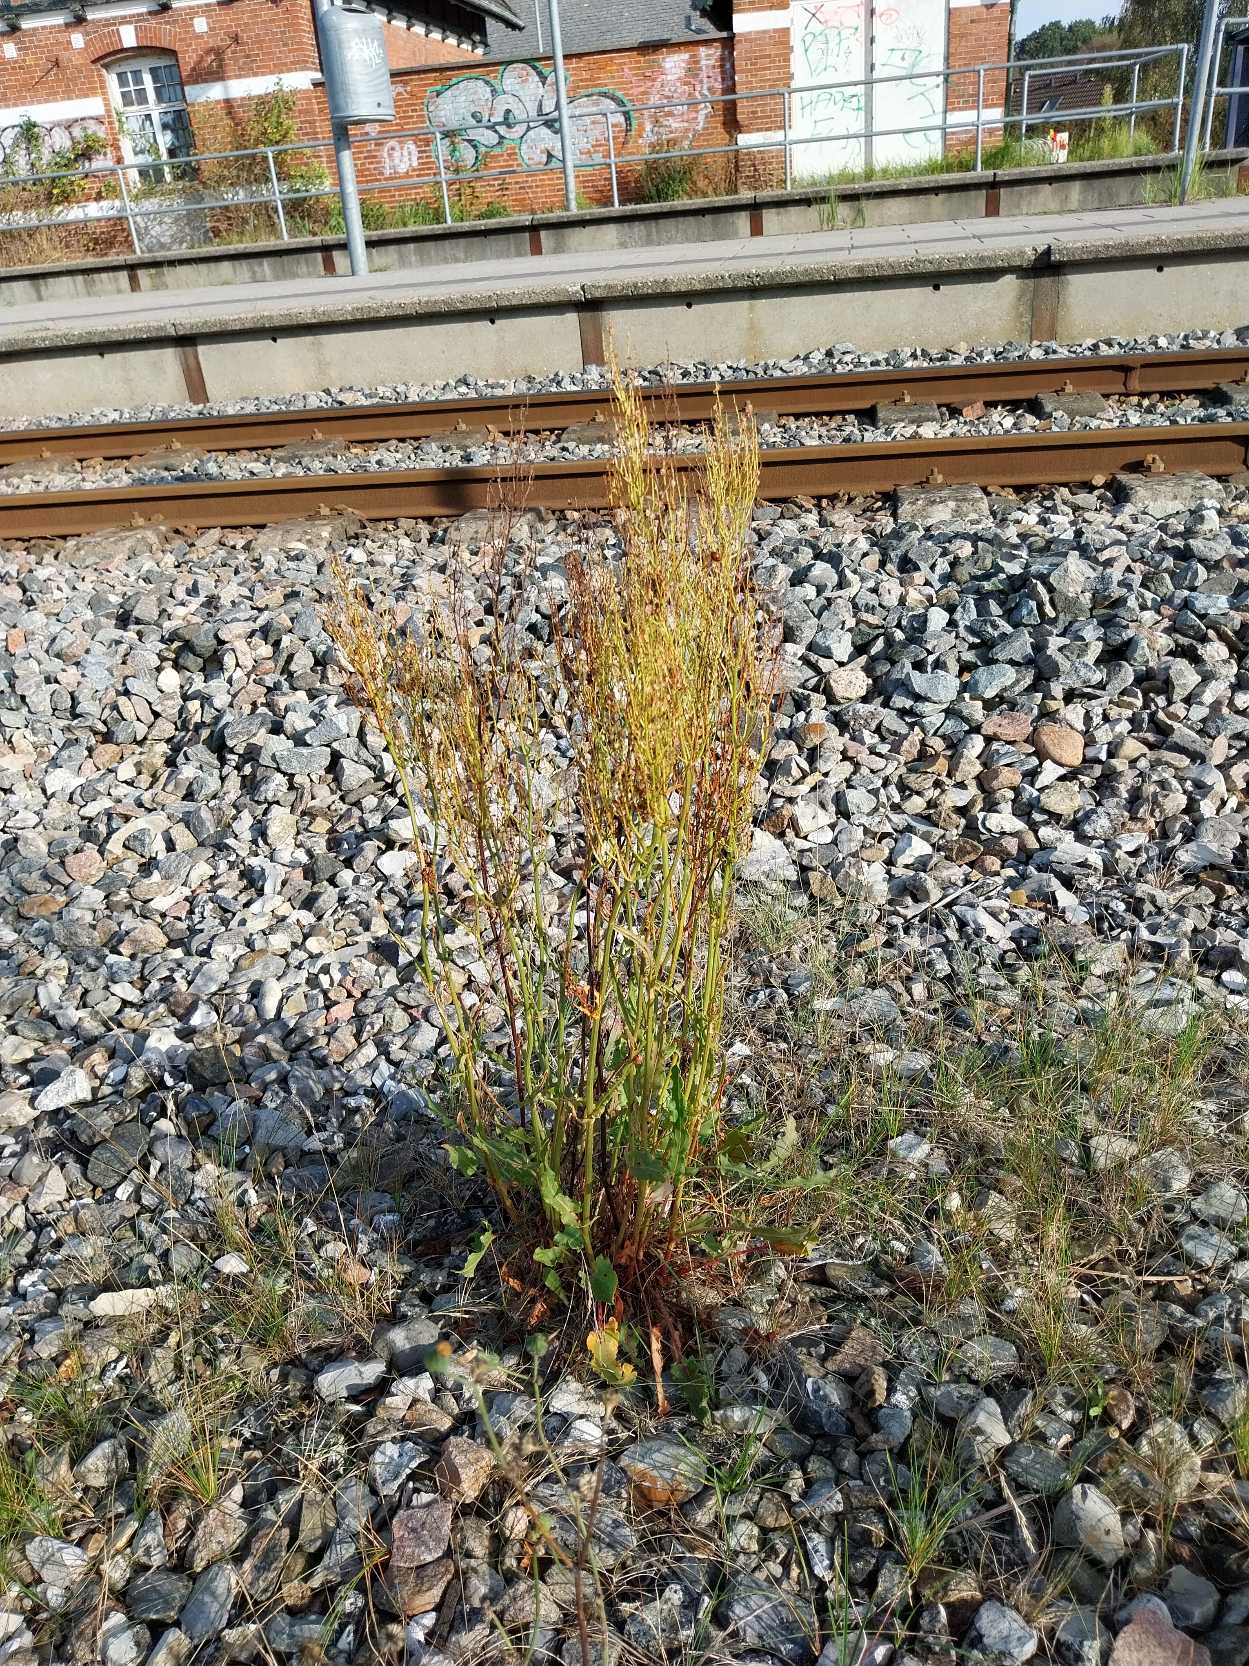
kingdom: Plantae
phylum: Tracheophyta
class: Magnoliopsida
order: Caryophyllales
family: Polygonaceae
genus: Rumex
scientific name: Rumex thyrsiflorus
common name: Dusk-syre
